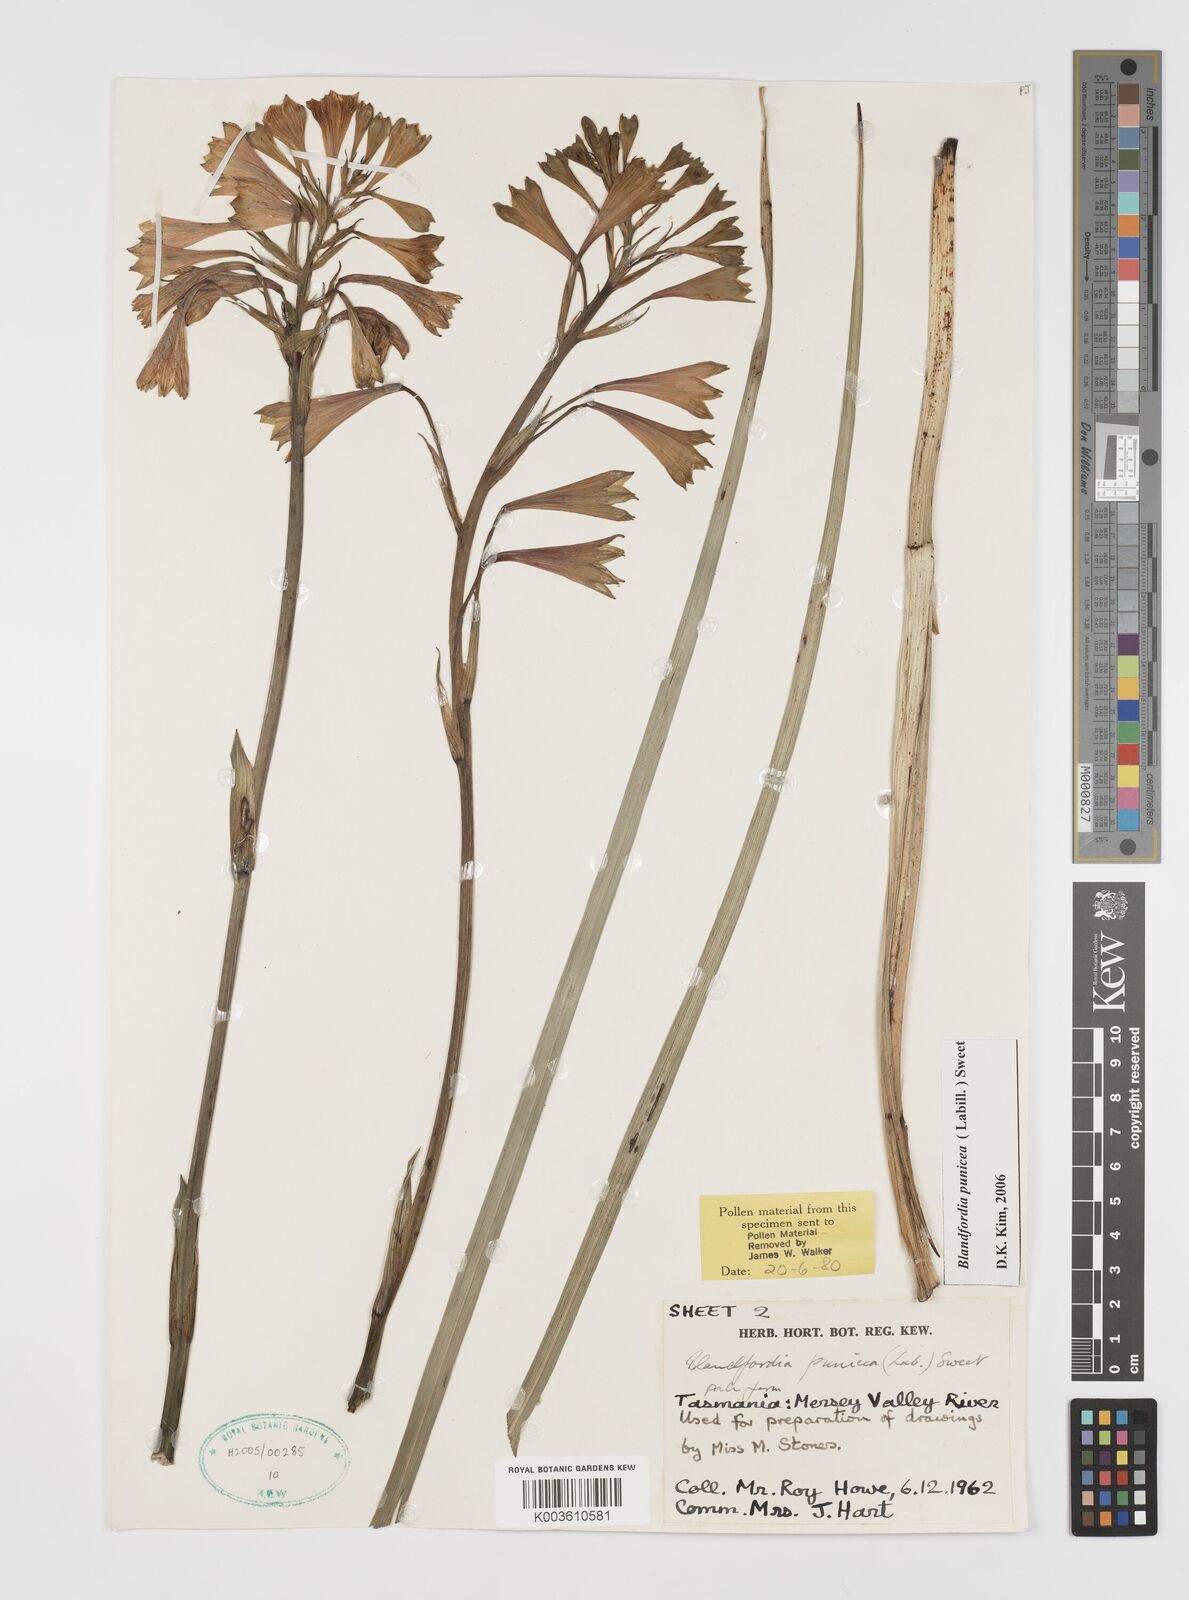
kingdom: Plantae
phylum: Tracheophyta
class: Liliopsida
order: Asparagales
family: Blandfordiaceae
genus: Blandfordia
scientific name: Blandfordia punicea
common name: Tasmanian christmas-bell
